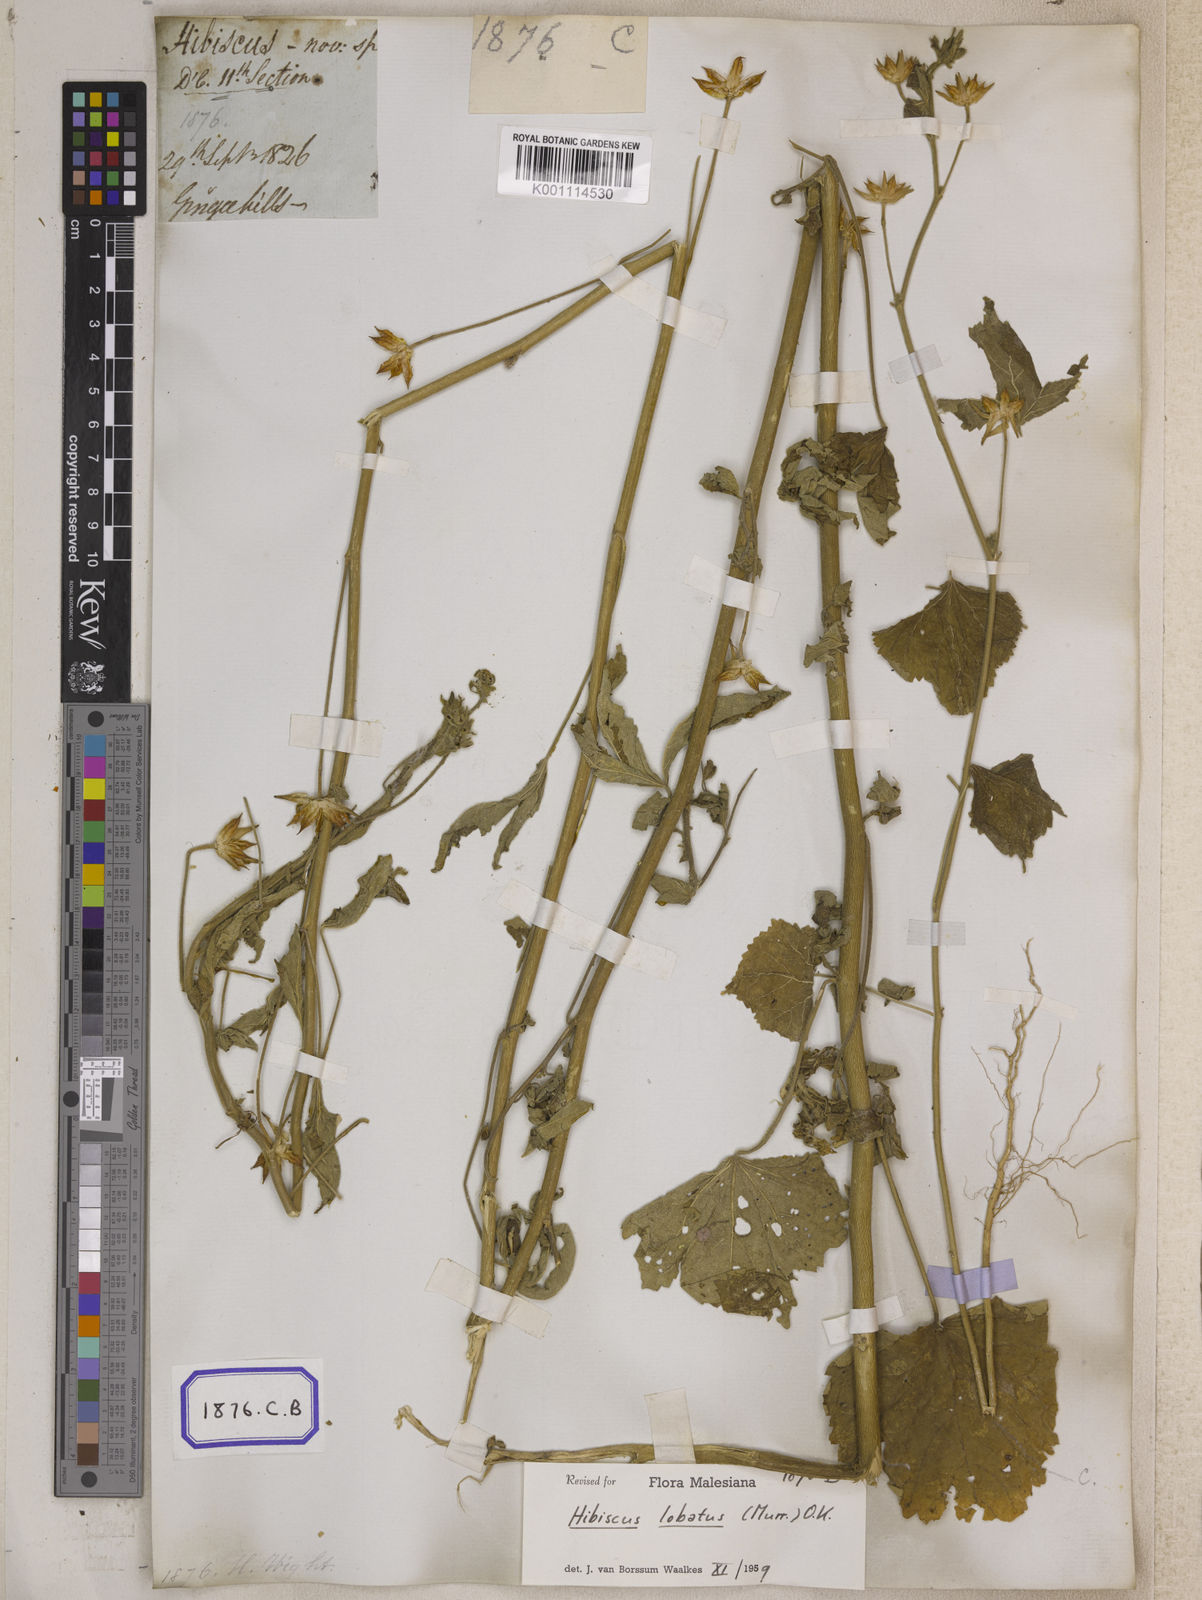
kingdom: Plantae
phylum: Tracheophyta
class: Magnoliopsida
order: Malvales
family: Malvaceae
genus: Hibiscus
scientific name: Hibiscus lobatus
